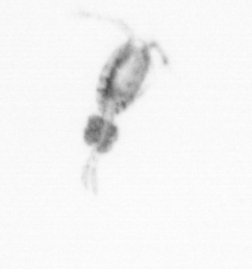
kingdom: Animalia
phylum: Arthropoda
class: Copepoda
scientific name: Copepoda
